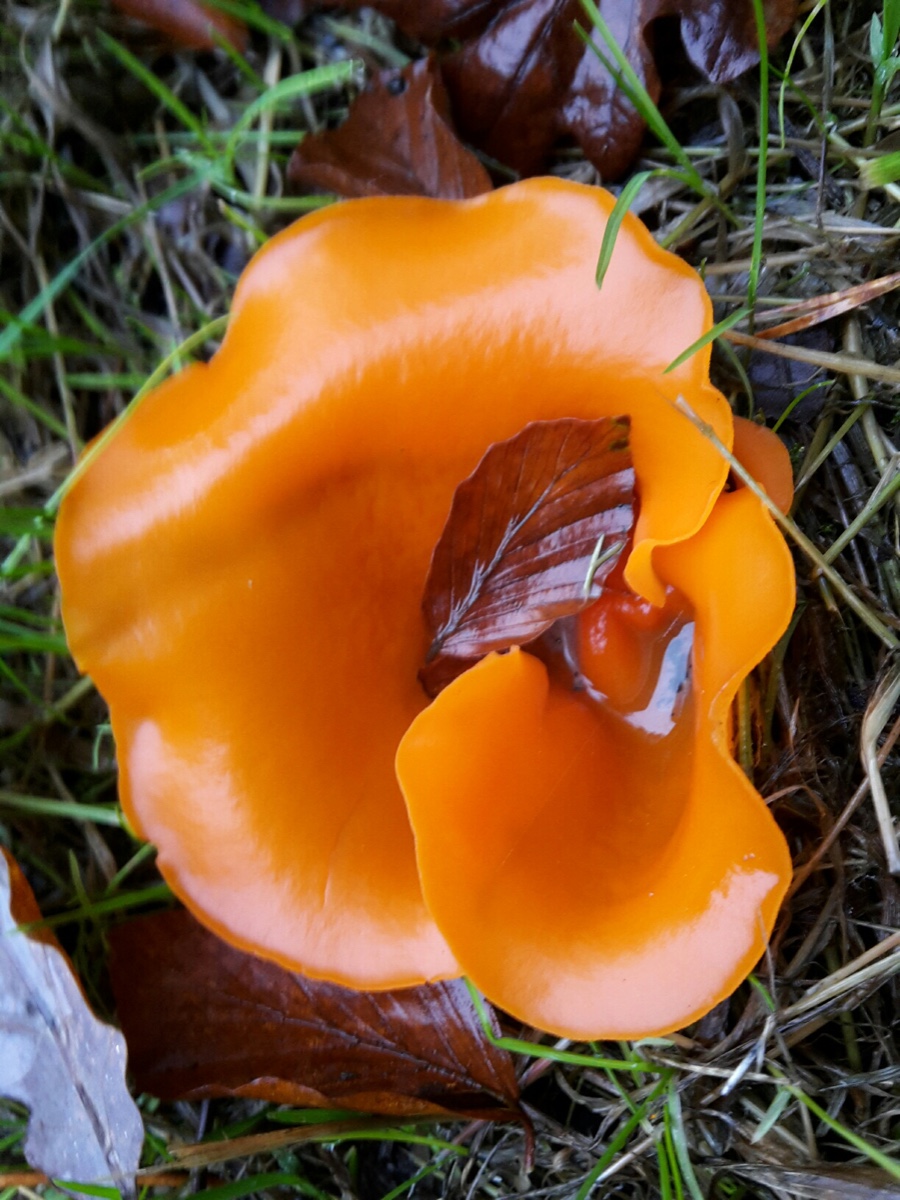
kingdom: Fungi
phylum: Ascomycota
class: Pezizomycetes
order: Pezizales
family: Pyronemataceae
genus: Aleuria
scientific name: Aleuria aurantia
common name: almindelig orangebæger
